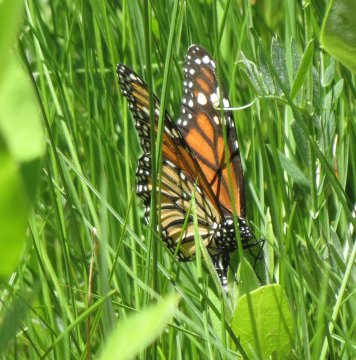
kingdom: Animalia
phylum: Arthropoda
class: Insecta
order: Lepidoptera
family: Nymphalidae
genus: Danaus
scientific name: Danaus plexippus
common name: Monarch
